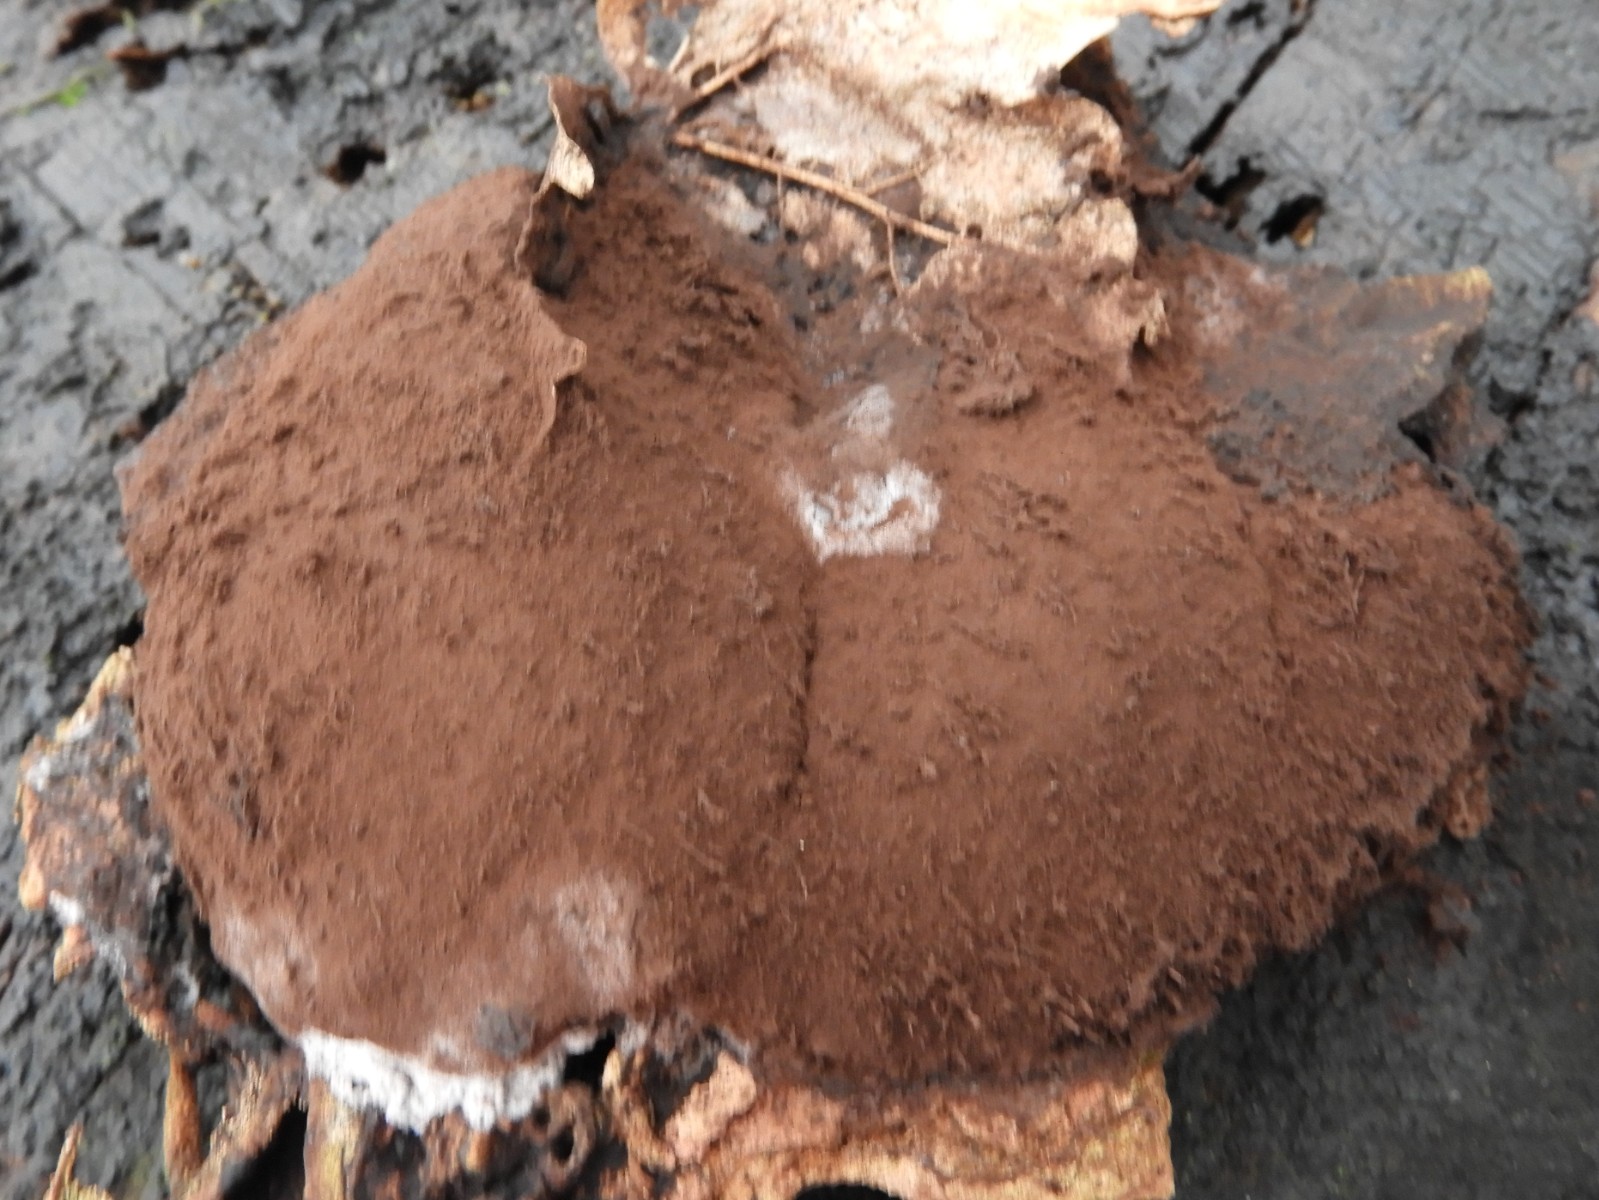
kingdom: Protozoa
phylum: Mycetozoa
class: Myxomycetes
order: Cribrariales
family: Tubiferaceae
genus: Reticularia
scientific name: Reticularia lycoperdon
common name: skinnende støvpude
